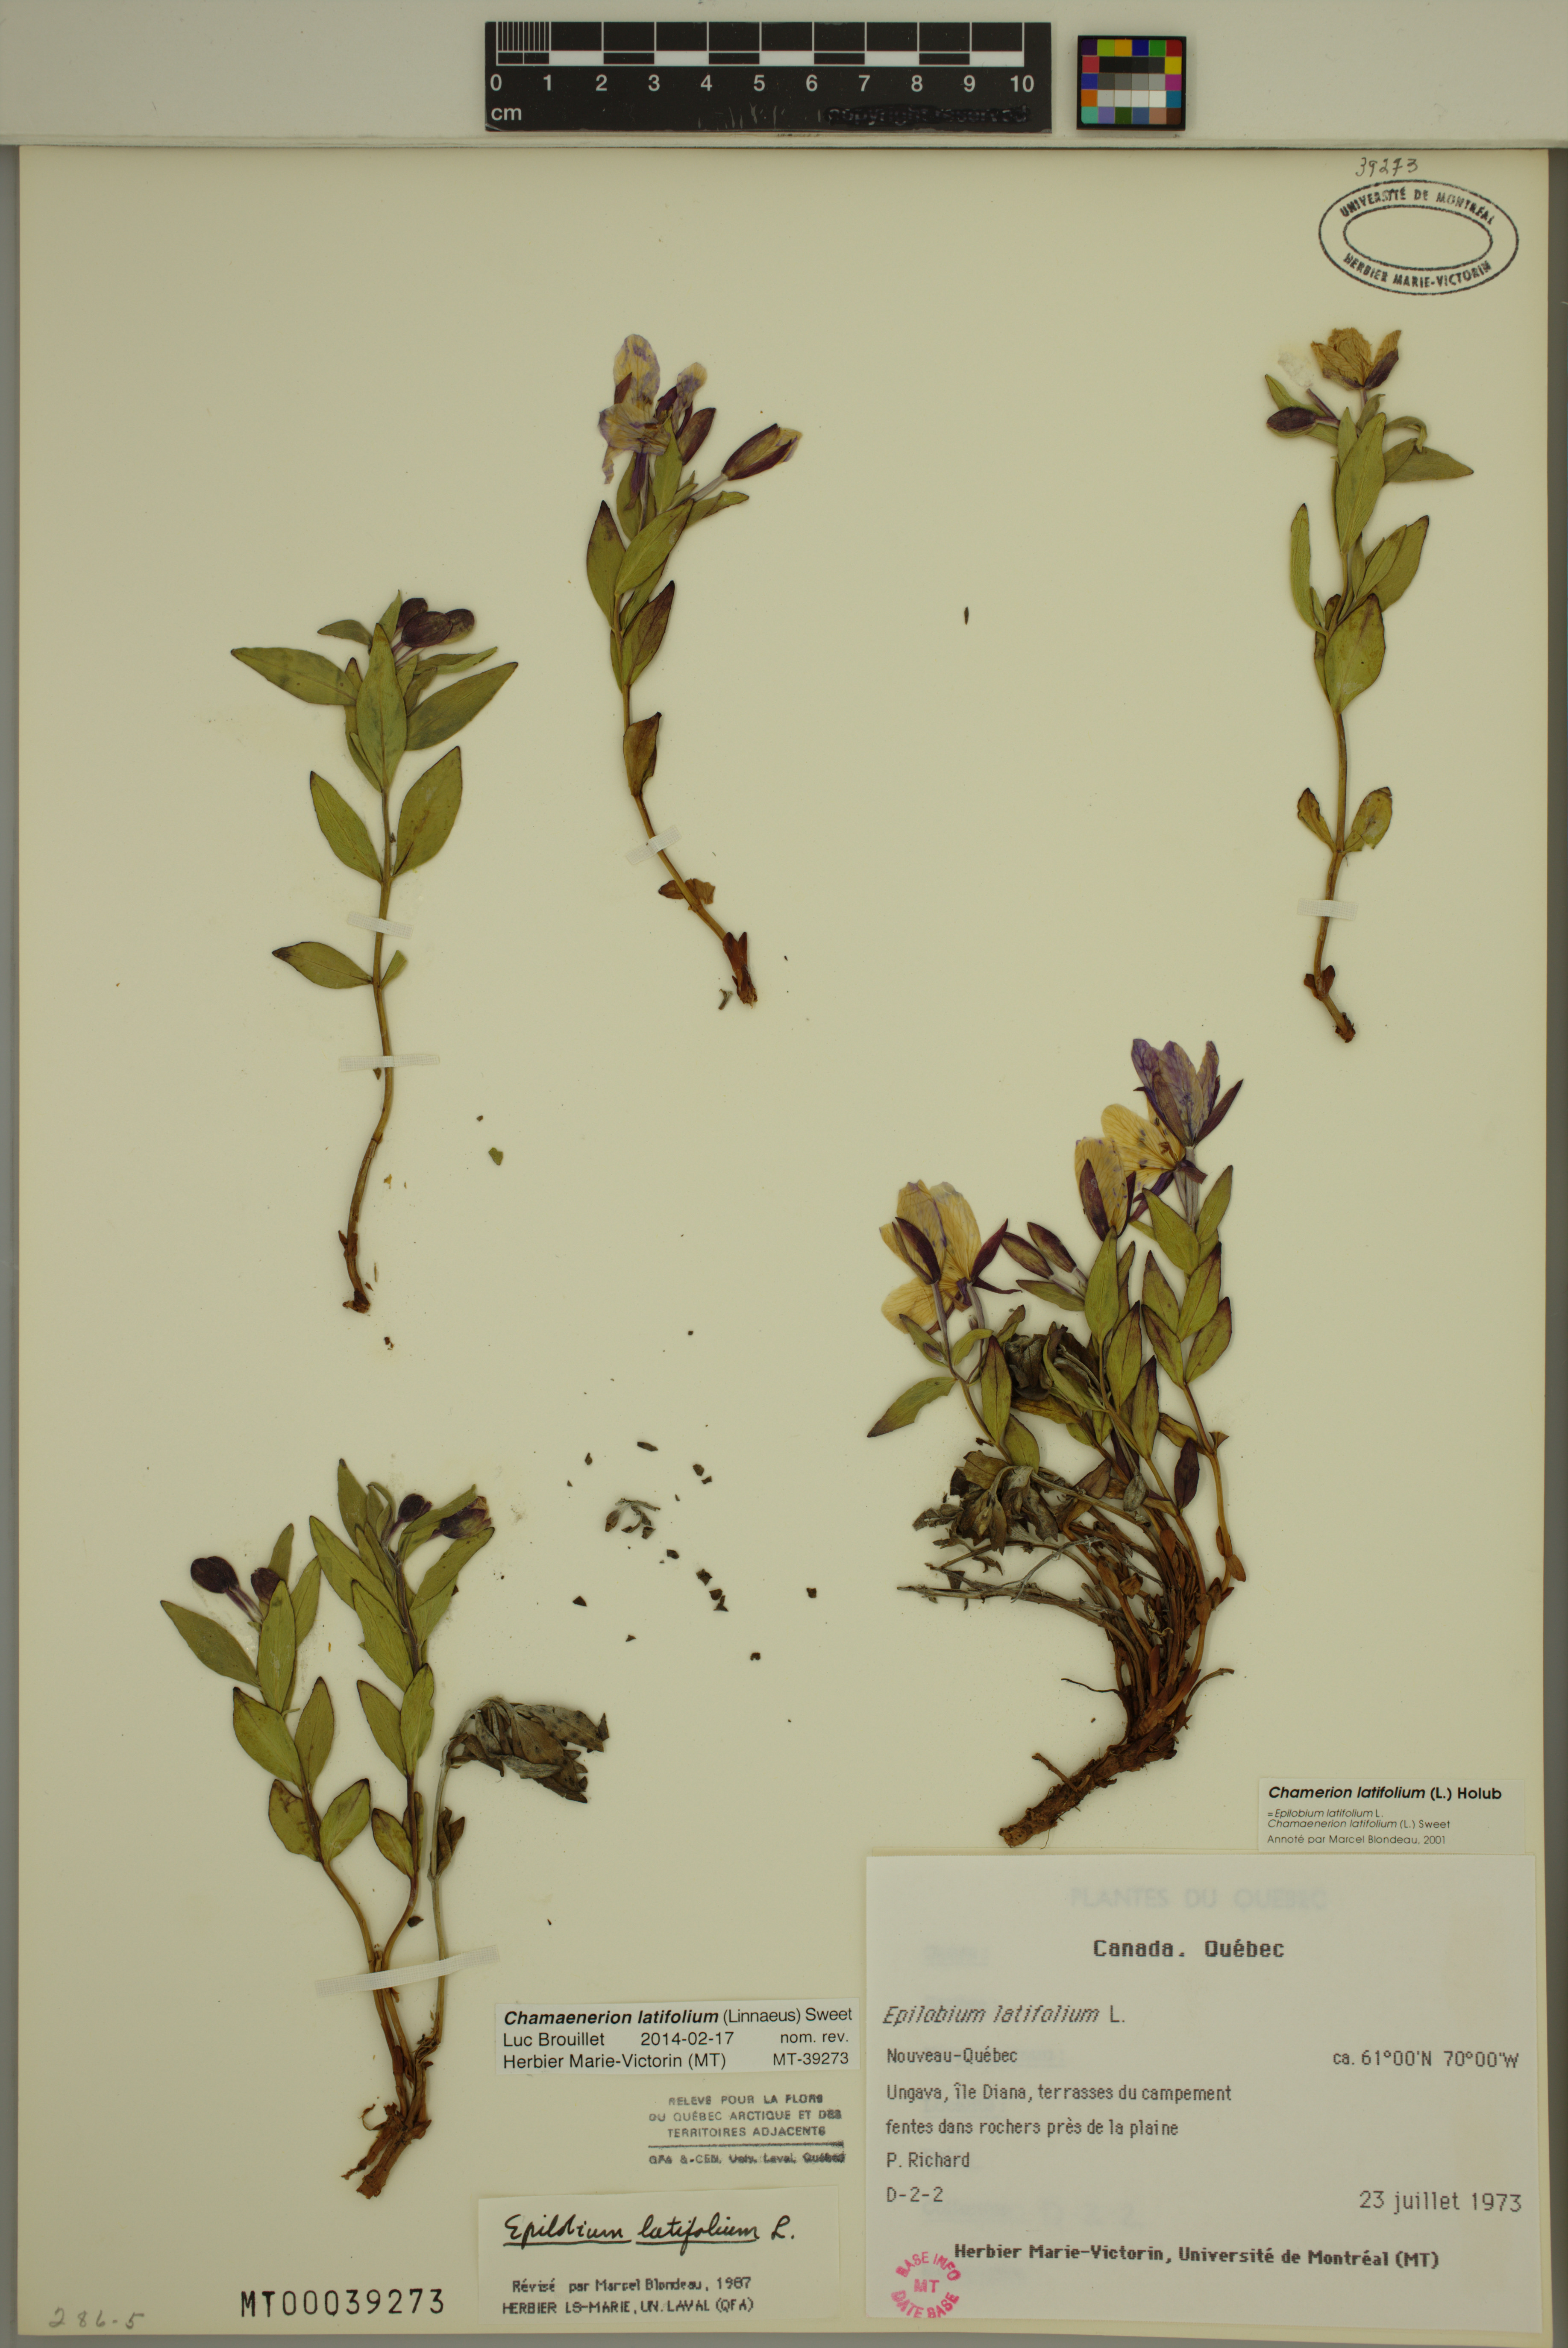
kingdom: Plantae
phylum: Tracheophyta
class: Magnoliopsida
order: Myrtales
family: Onagraceae
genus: Chamaenerion
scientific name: Chamaenerion latifolium
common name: Dwarf fireweed
